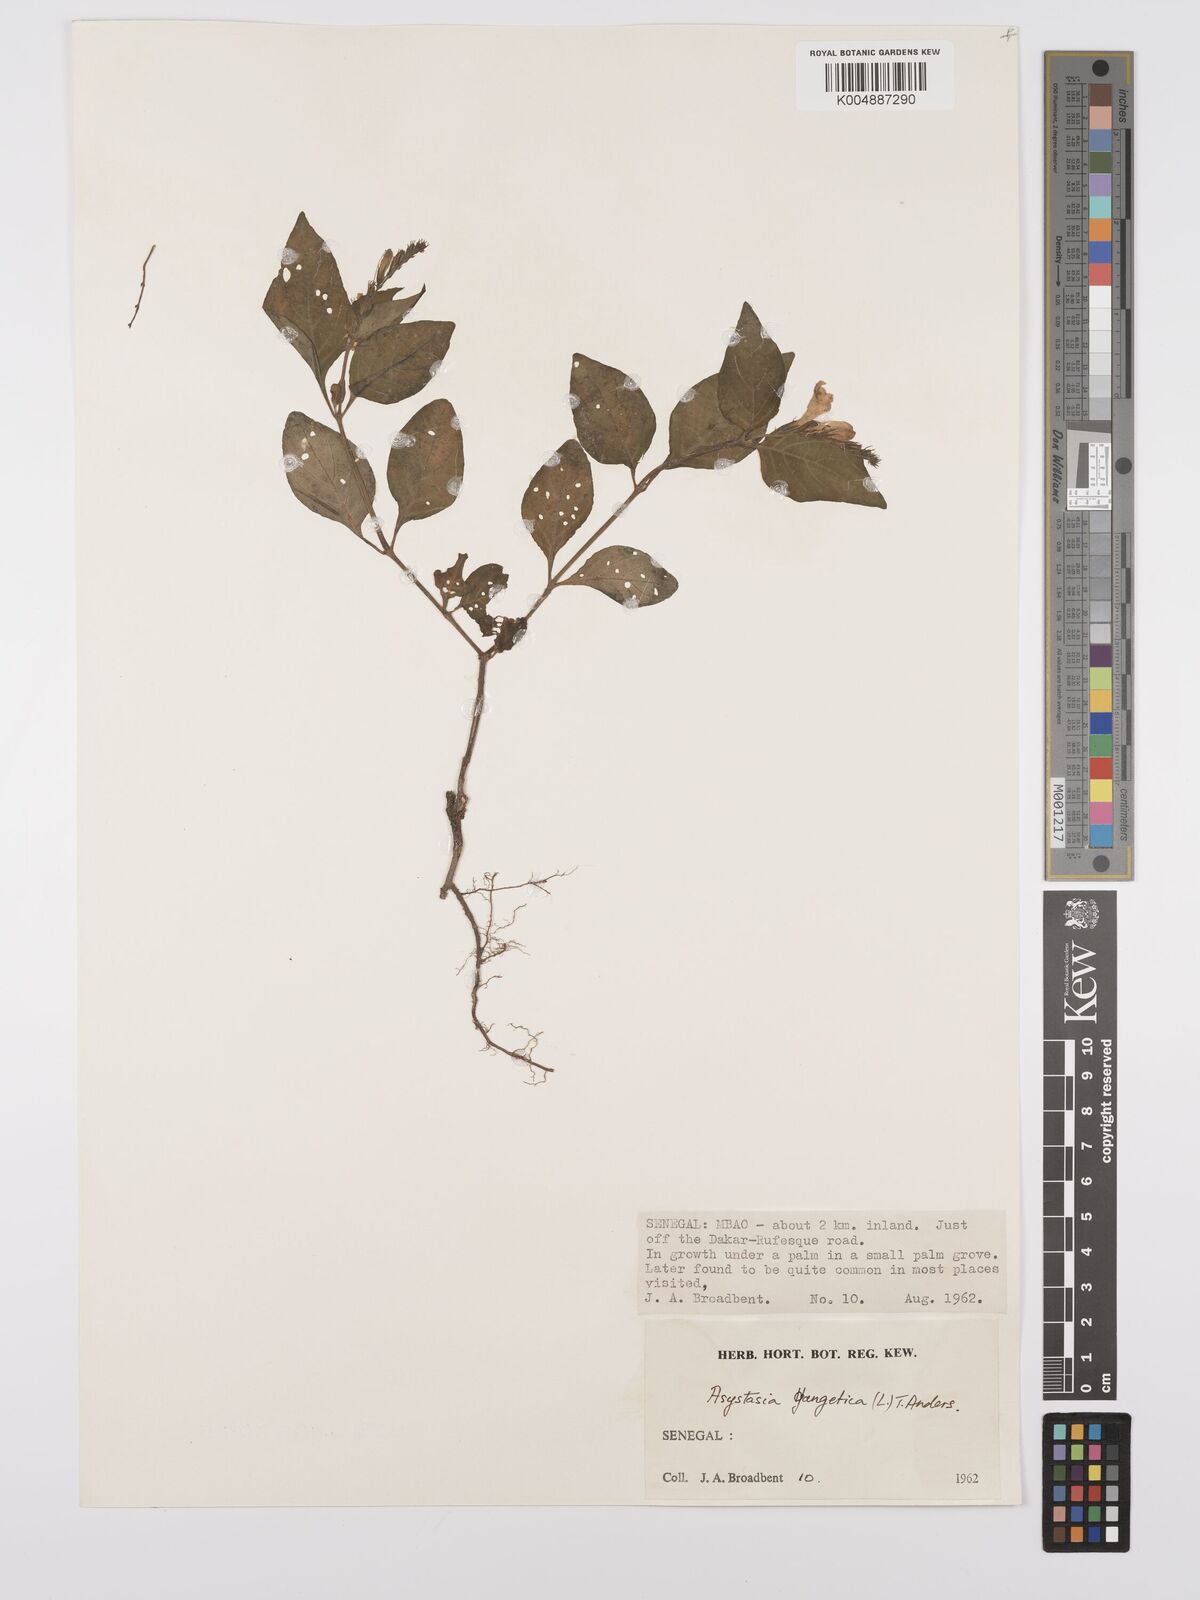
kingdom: Plantae
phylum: Tracheophyta
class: Magnoliopsida
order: Lamiales
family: Acanthaceae
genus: Asystasia
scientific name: Asystasia gangetica
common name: Chinese violet
